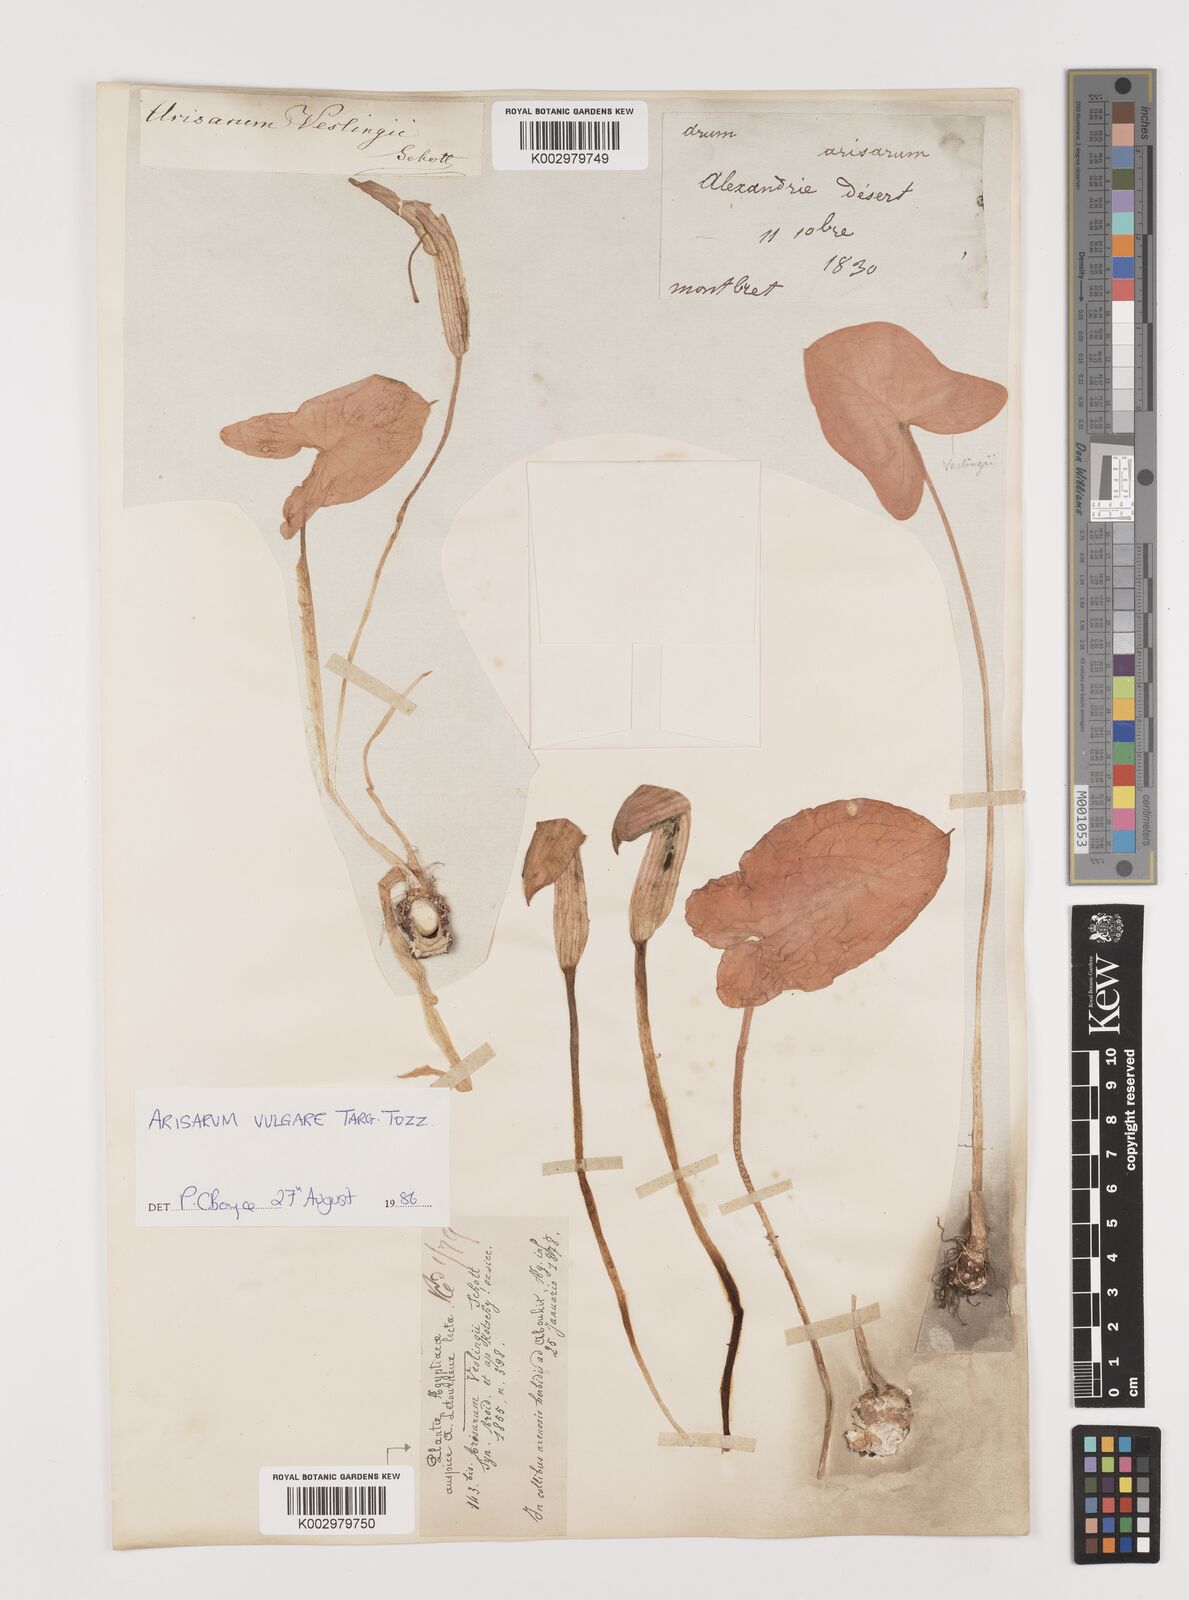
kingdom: Plantae
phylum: Tracheophyta
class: Liliopsida
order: Alismatales
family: Araceae
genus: Arisarum
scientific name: Arisarum vulgare
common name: Common arisarum
